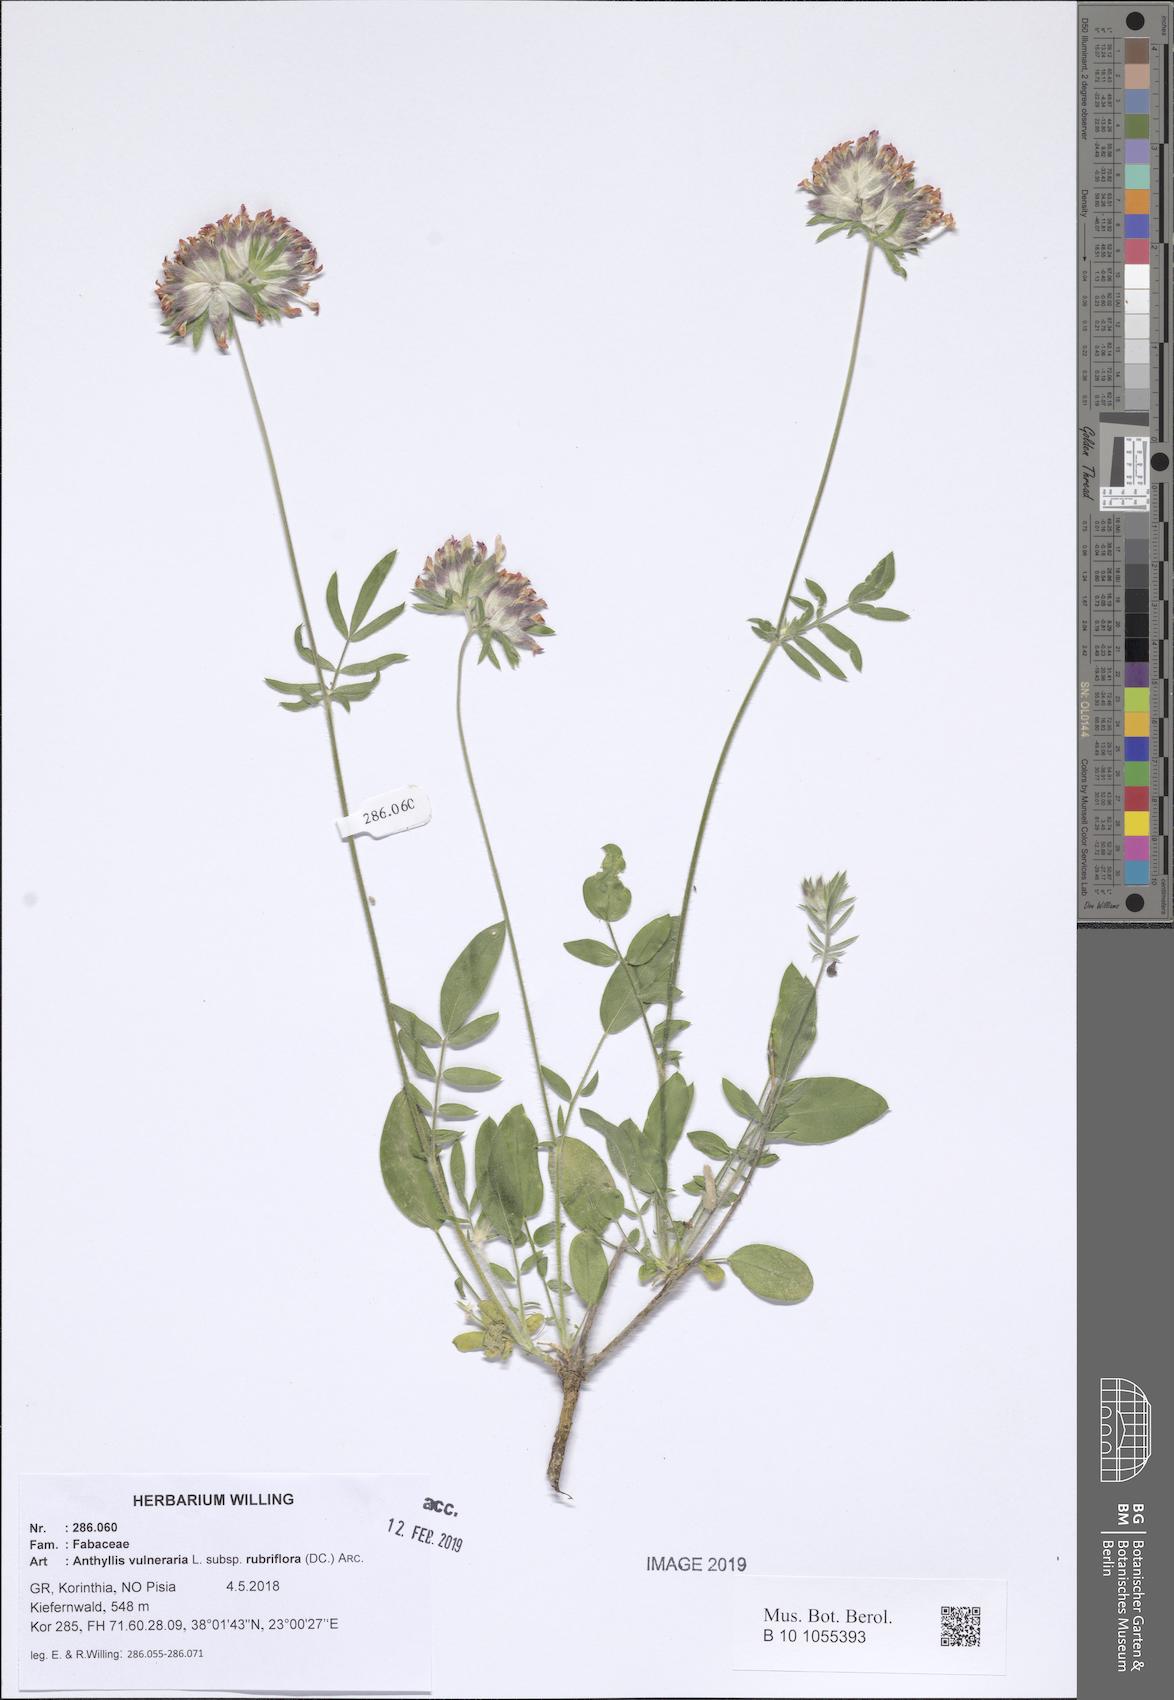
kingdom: Plantae
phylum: Tracheophyta
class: Magnoliopsida
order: Fabales
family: Fabaceae
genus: Anthyllis
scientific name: Anthyllis vulneraria
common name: Kidney vetch
